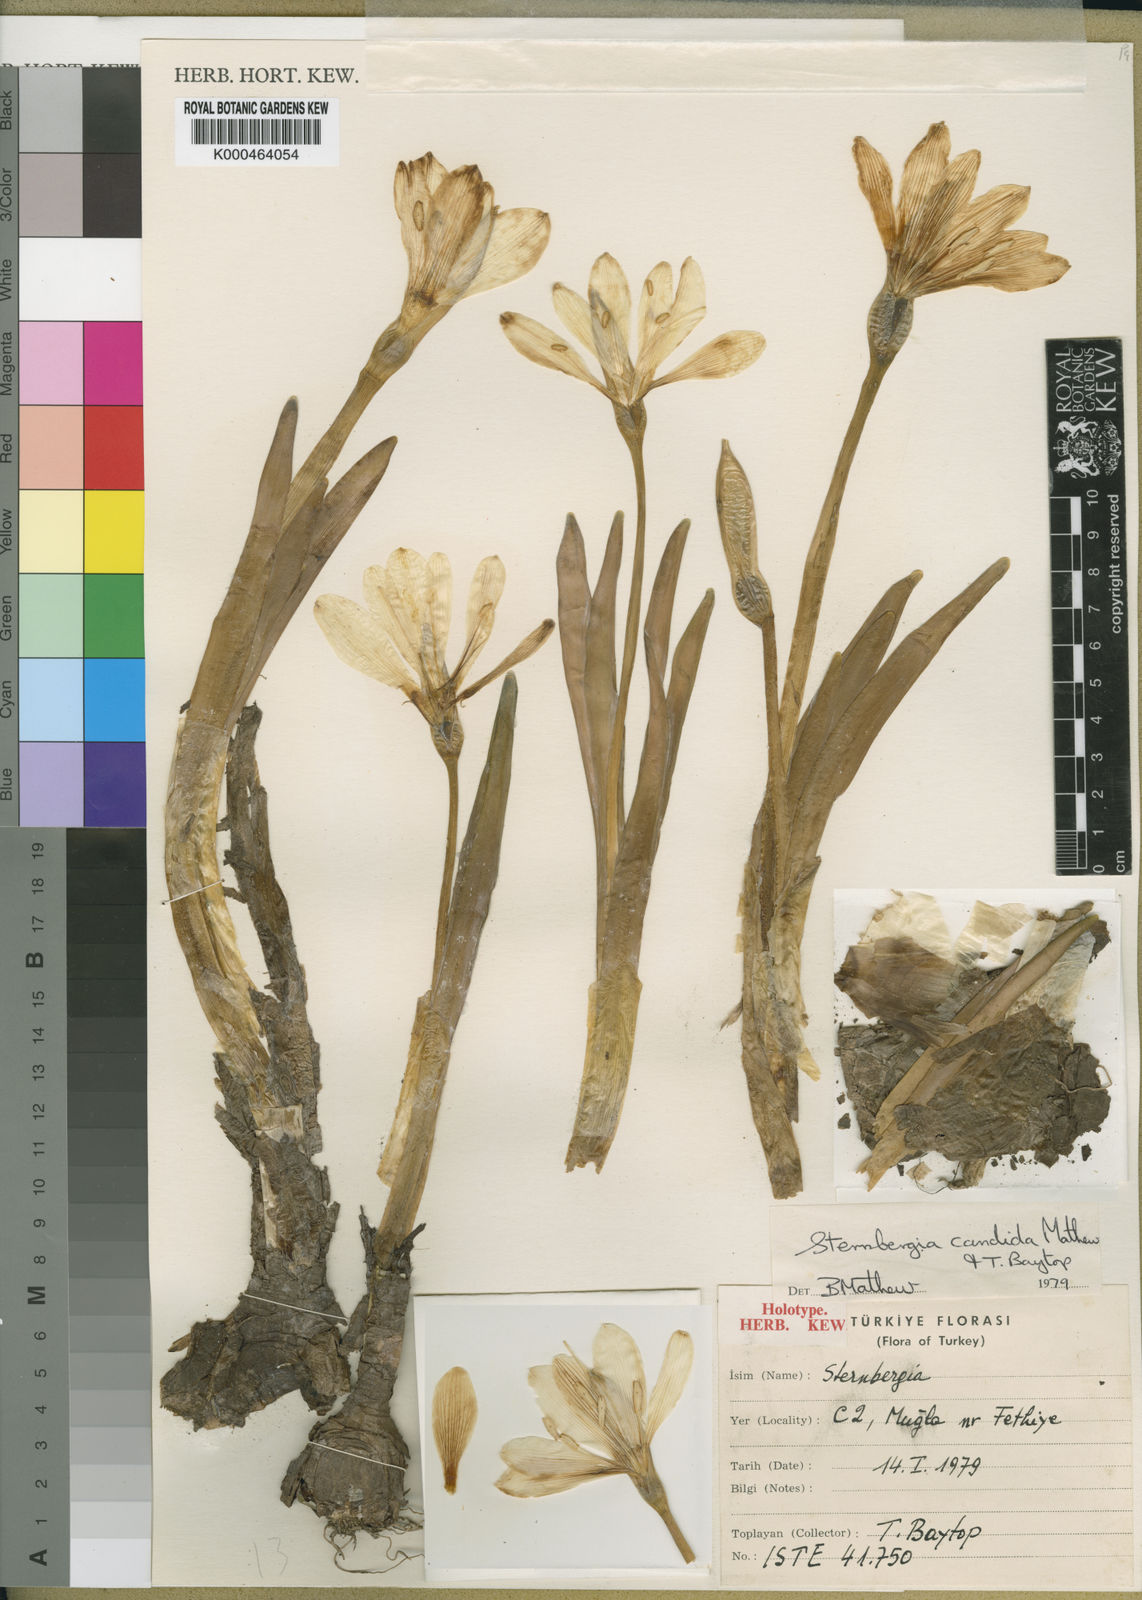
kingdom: Plantae
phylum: Tracheophyta
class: Liliopsida
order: Asparagales
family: Amaryllidaceae
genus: Sternbergia
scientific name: Sternbergia candida
